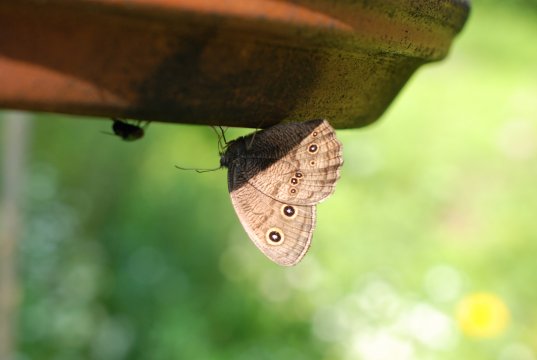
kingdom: Animalia
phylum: Arthropoda
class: Insecta
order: Lepidoptera
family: Nymphalidae
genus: Cercyonis
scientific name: Cercyonis pegala
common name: Common Wood-Nymph
